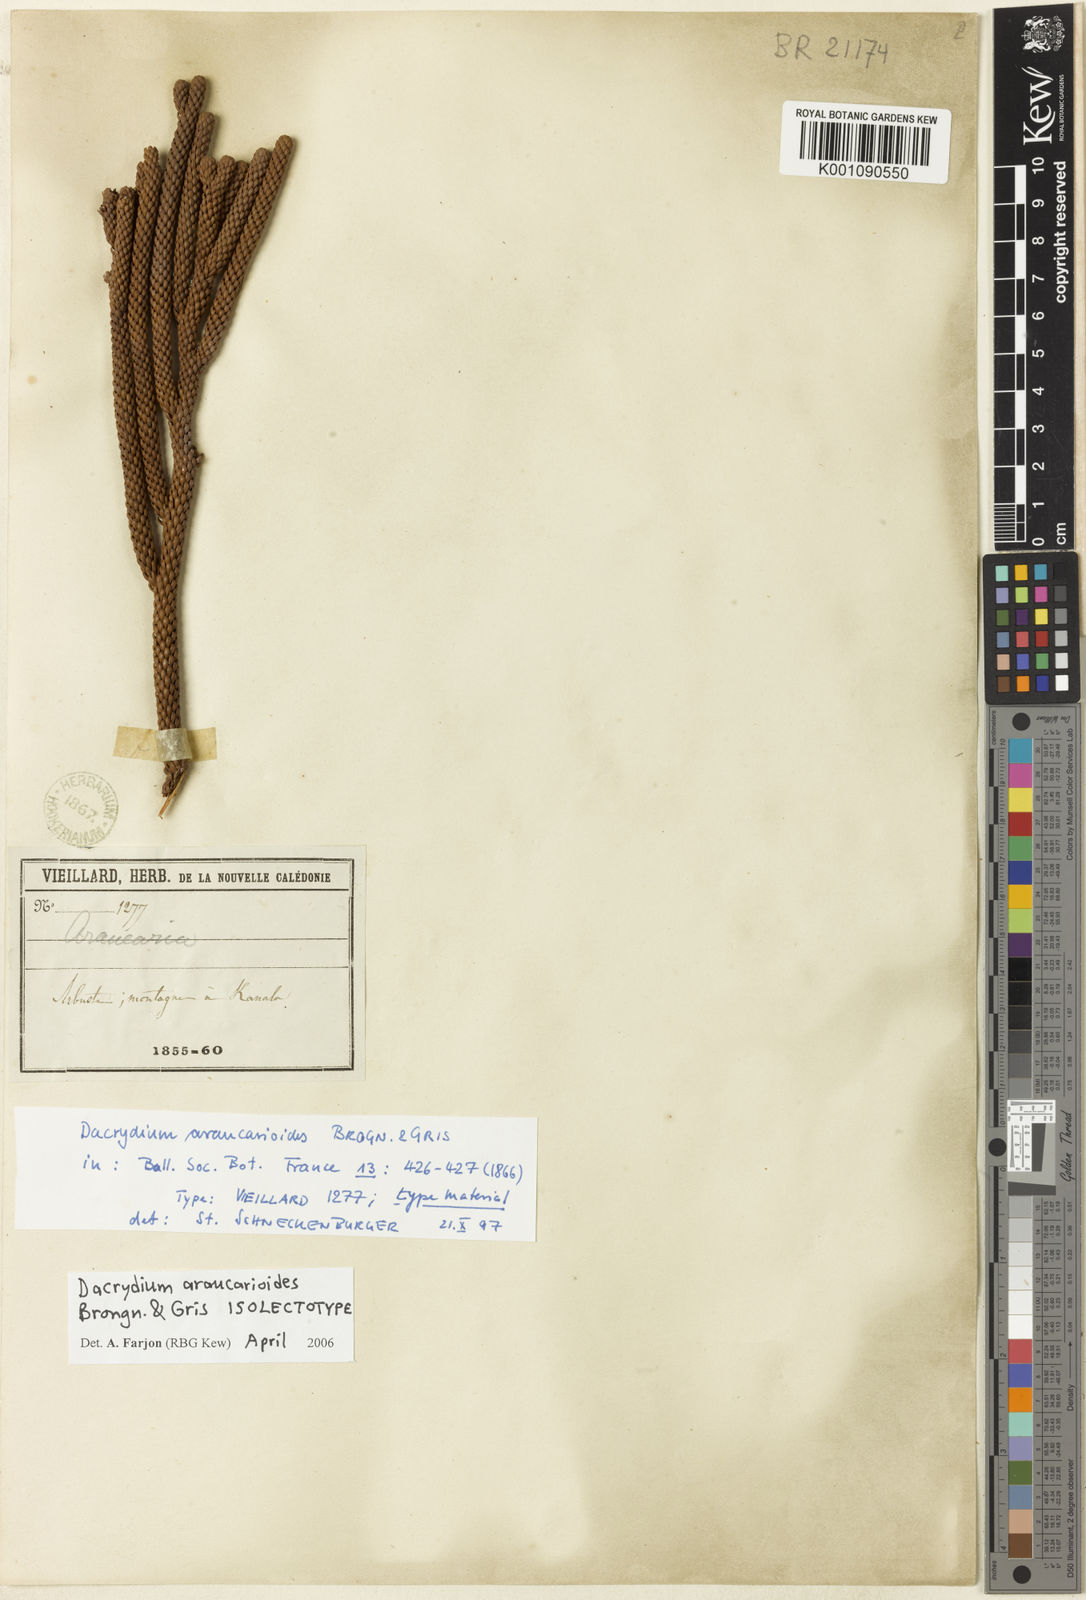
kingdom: Plantae
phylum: Tracheophyta
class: Pinopsida
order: Pinales
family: Podocarpaceae
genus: Dacrydium
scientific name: Dacrydium araucarioides
